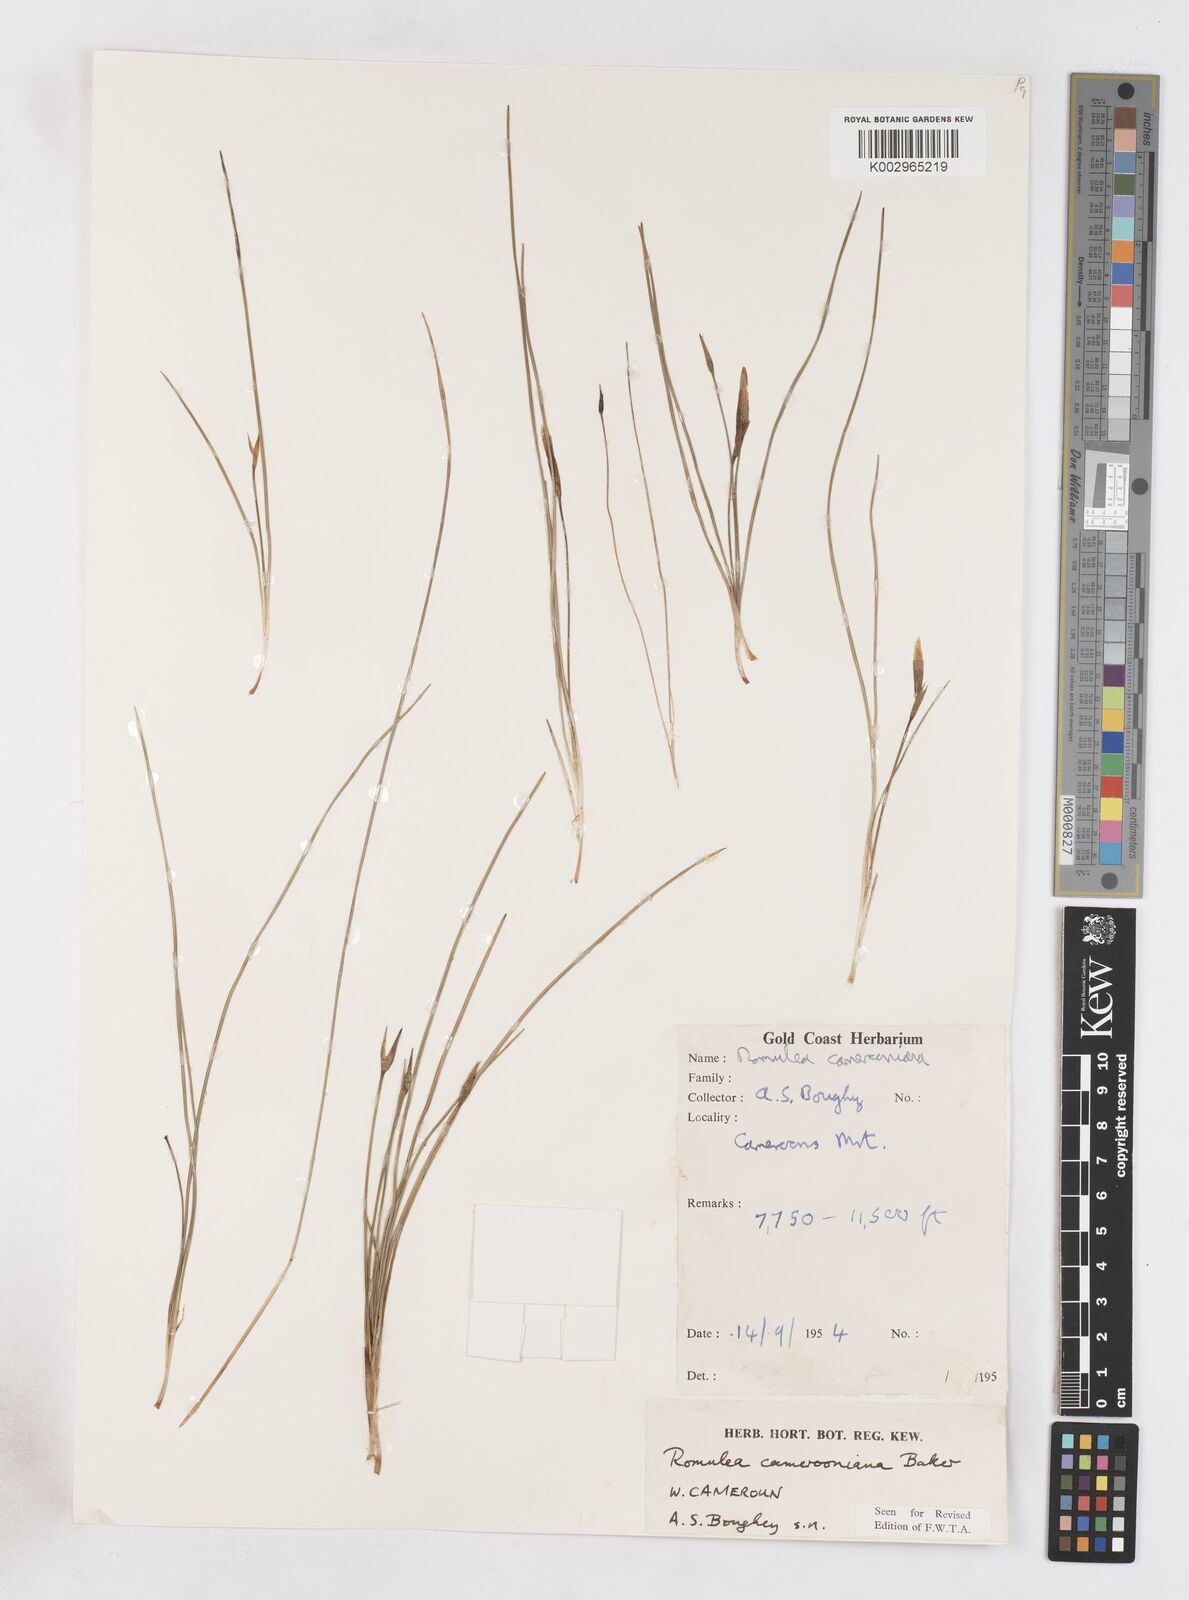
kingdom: Plantae
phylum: Tracheophyta
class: Liliopsida
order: Asparagales
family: Iridaceae
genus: Romulea
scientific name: Romulea camerooniana
